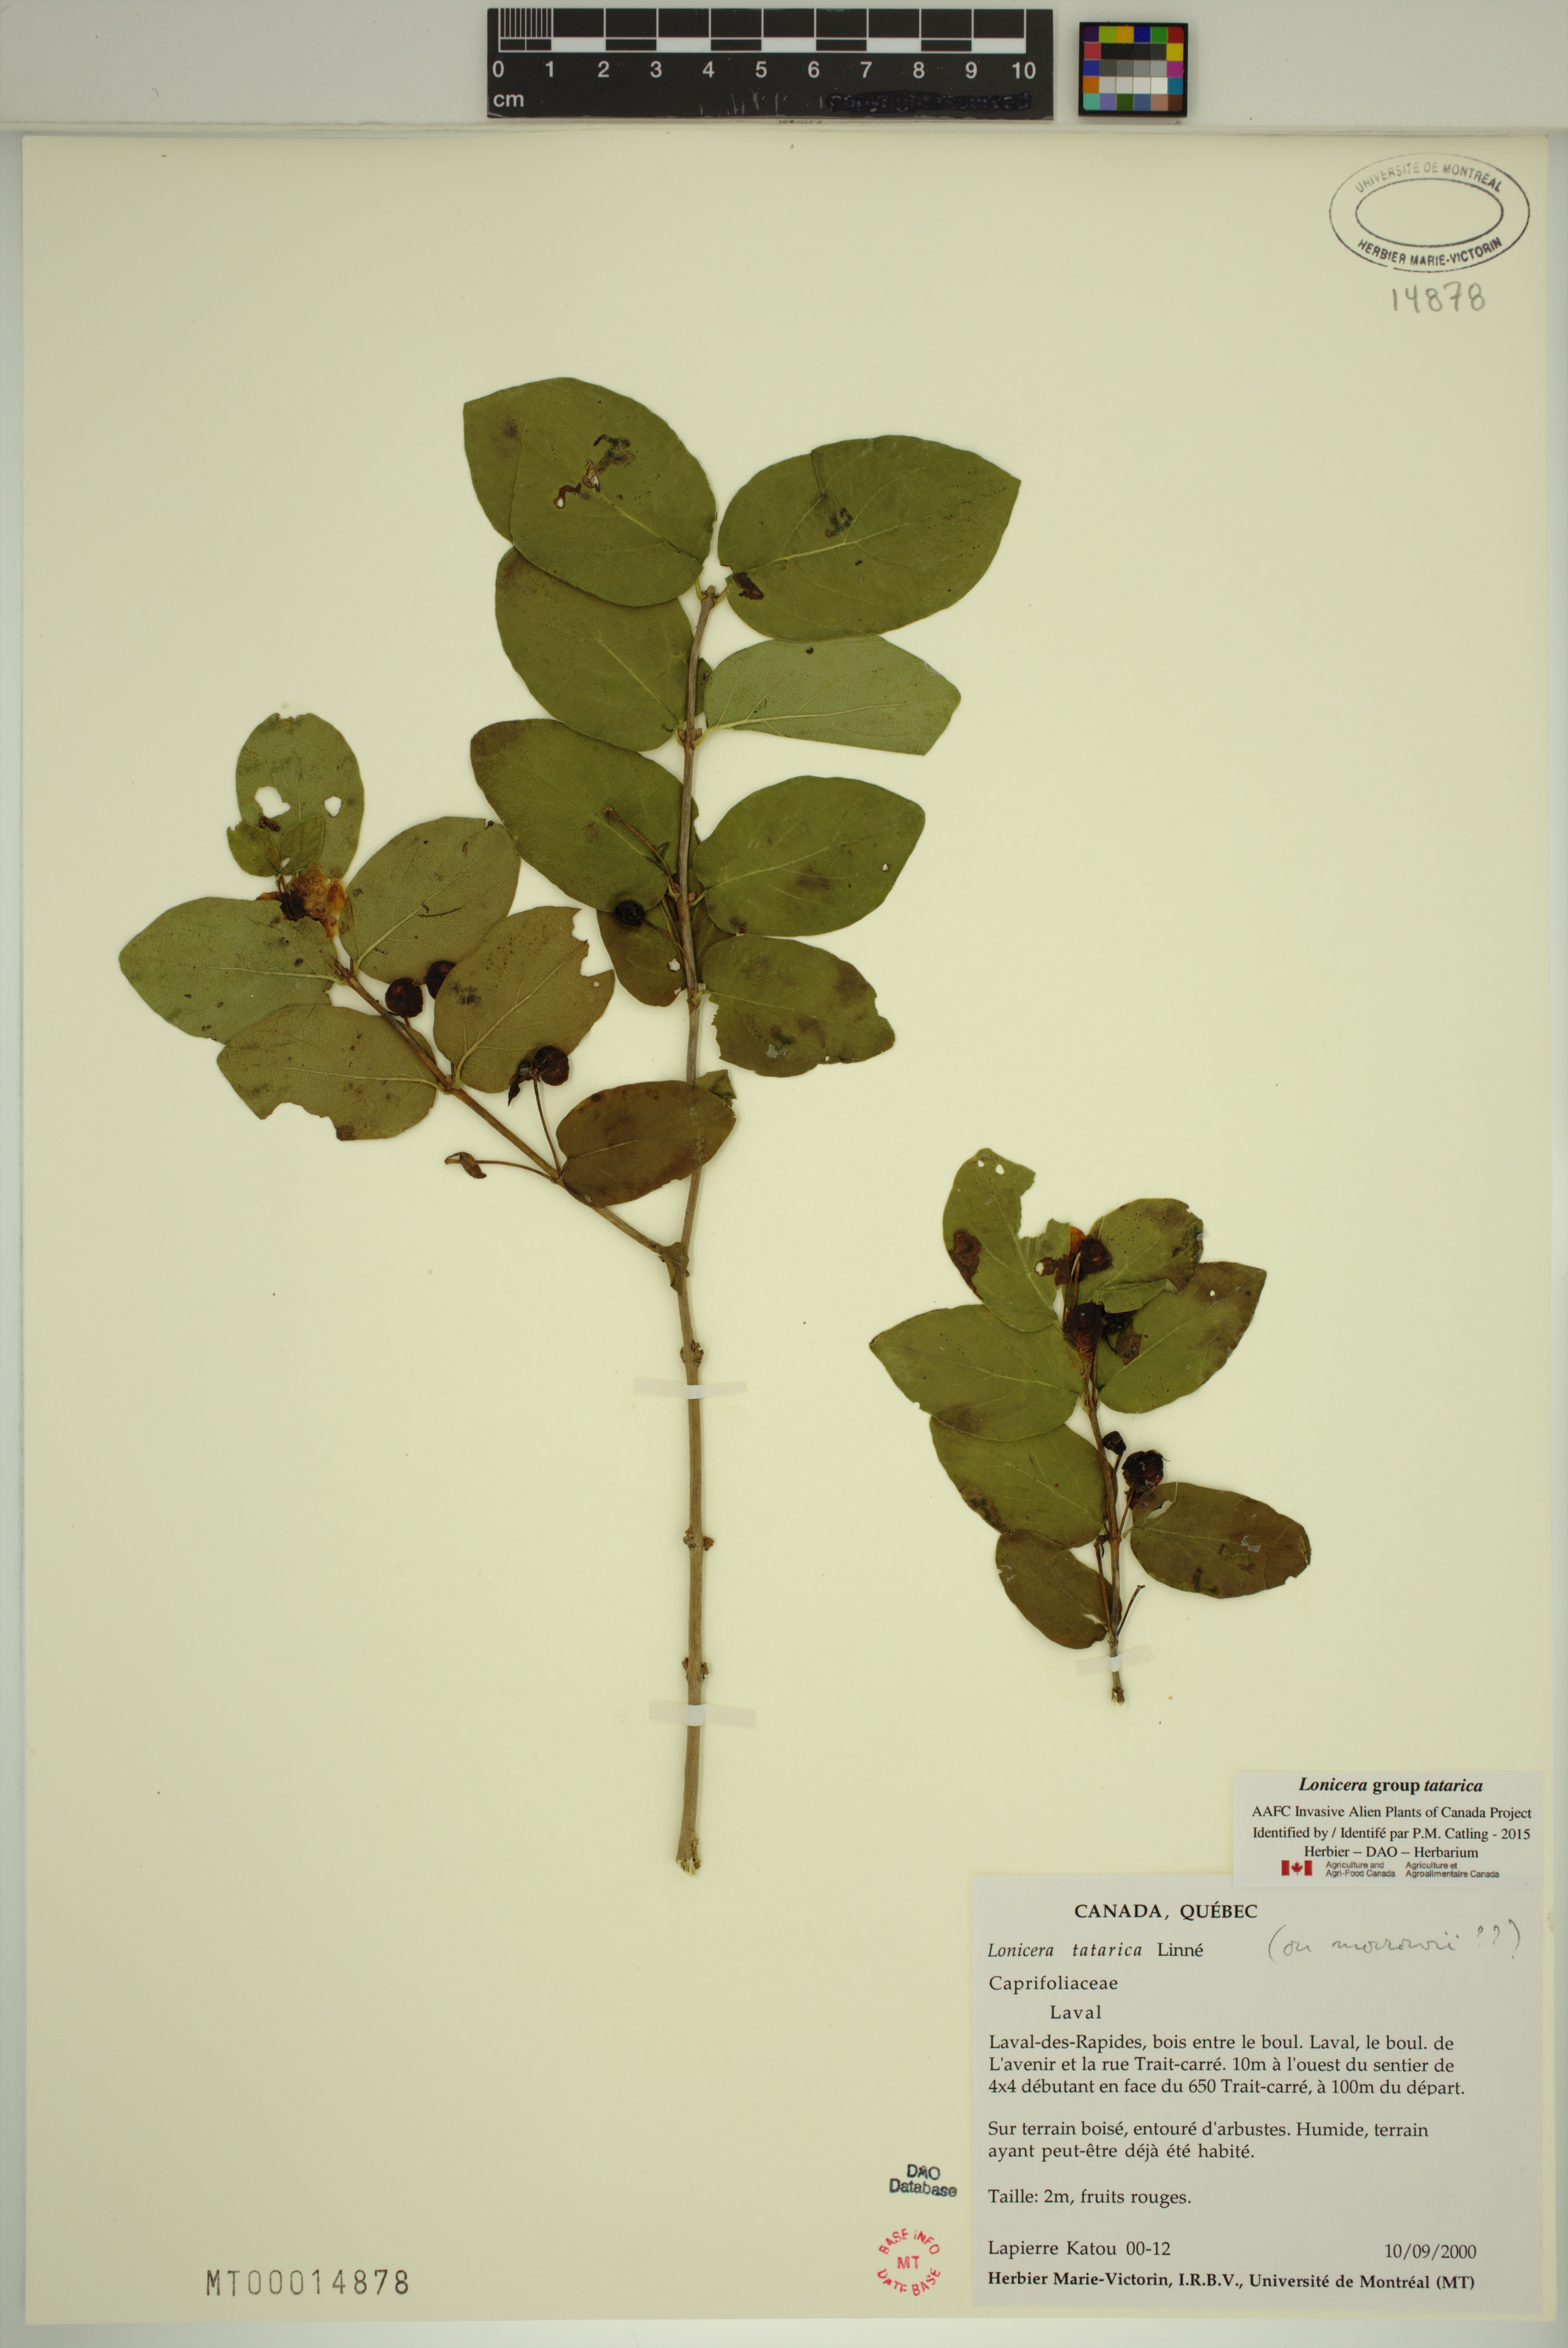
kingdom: Plantae
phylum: Tracheophyta
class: Magnoliopsida
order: Dipsacales
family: Caprifoliaceae
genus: Lonicera
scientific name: Lonicera tatarica
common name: Tatarian honeysuckle
